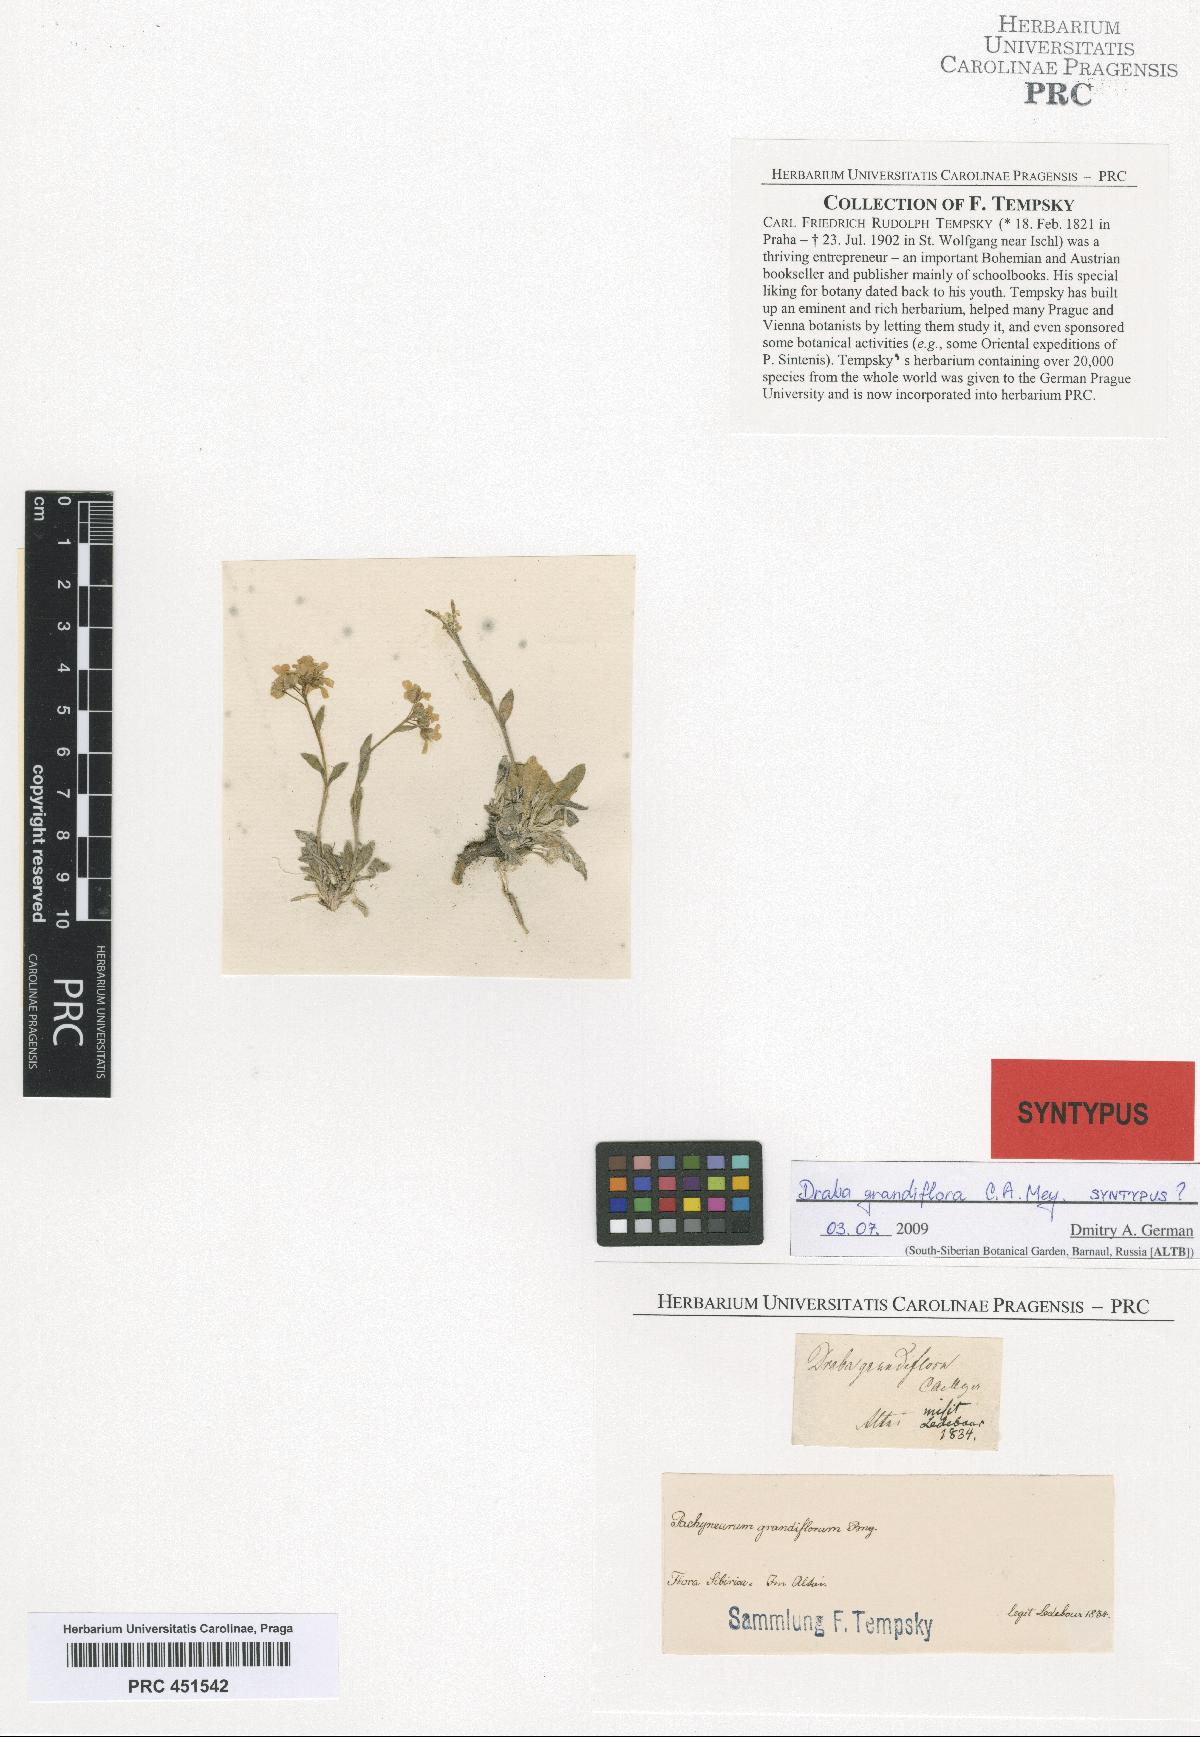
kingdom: Plantae
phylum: Tracheophyta
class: Magnoliopsida
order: Brassicales
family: Brassicaceae
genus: Pachyneurum
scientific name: Pachyneurum grandiflorum
